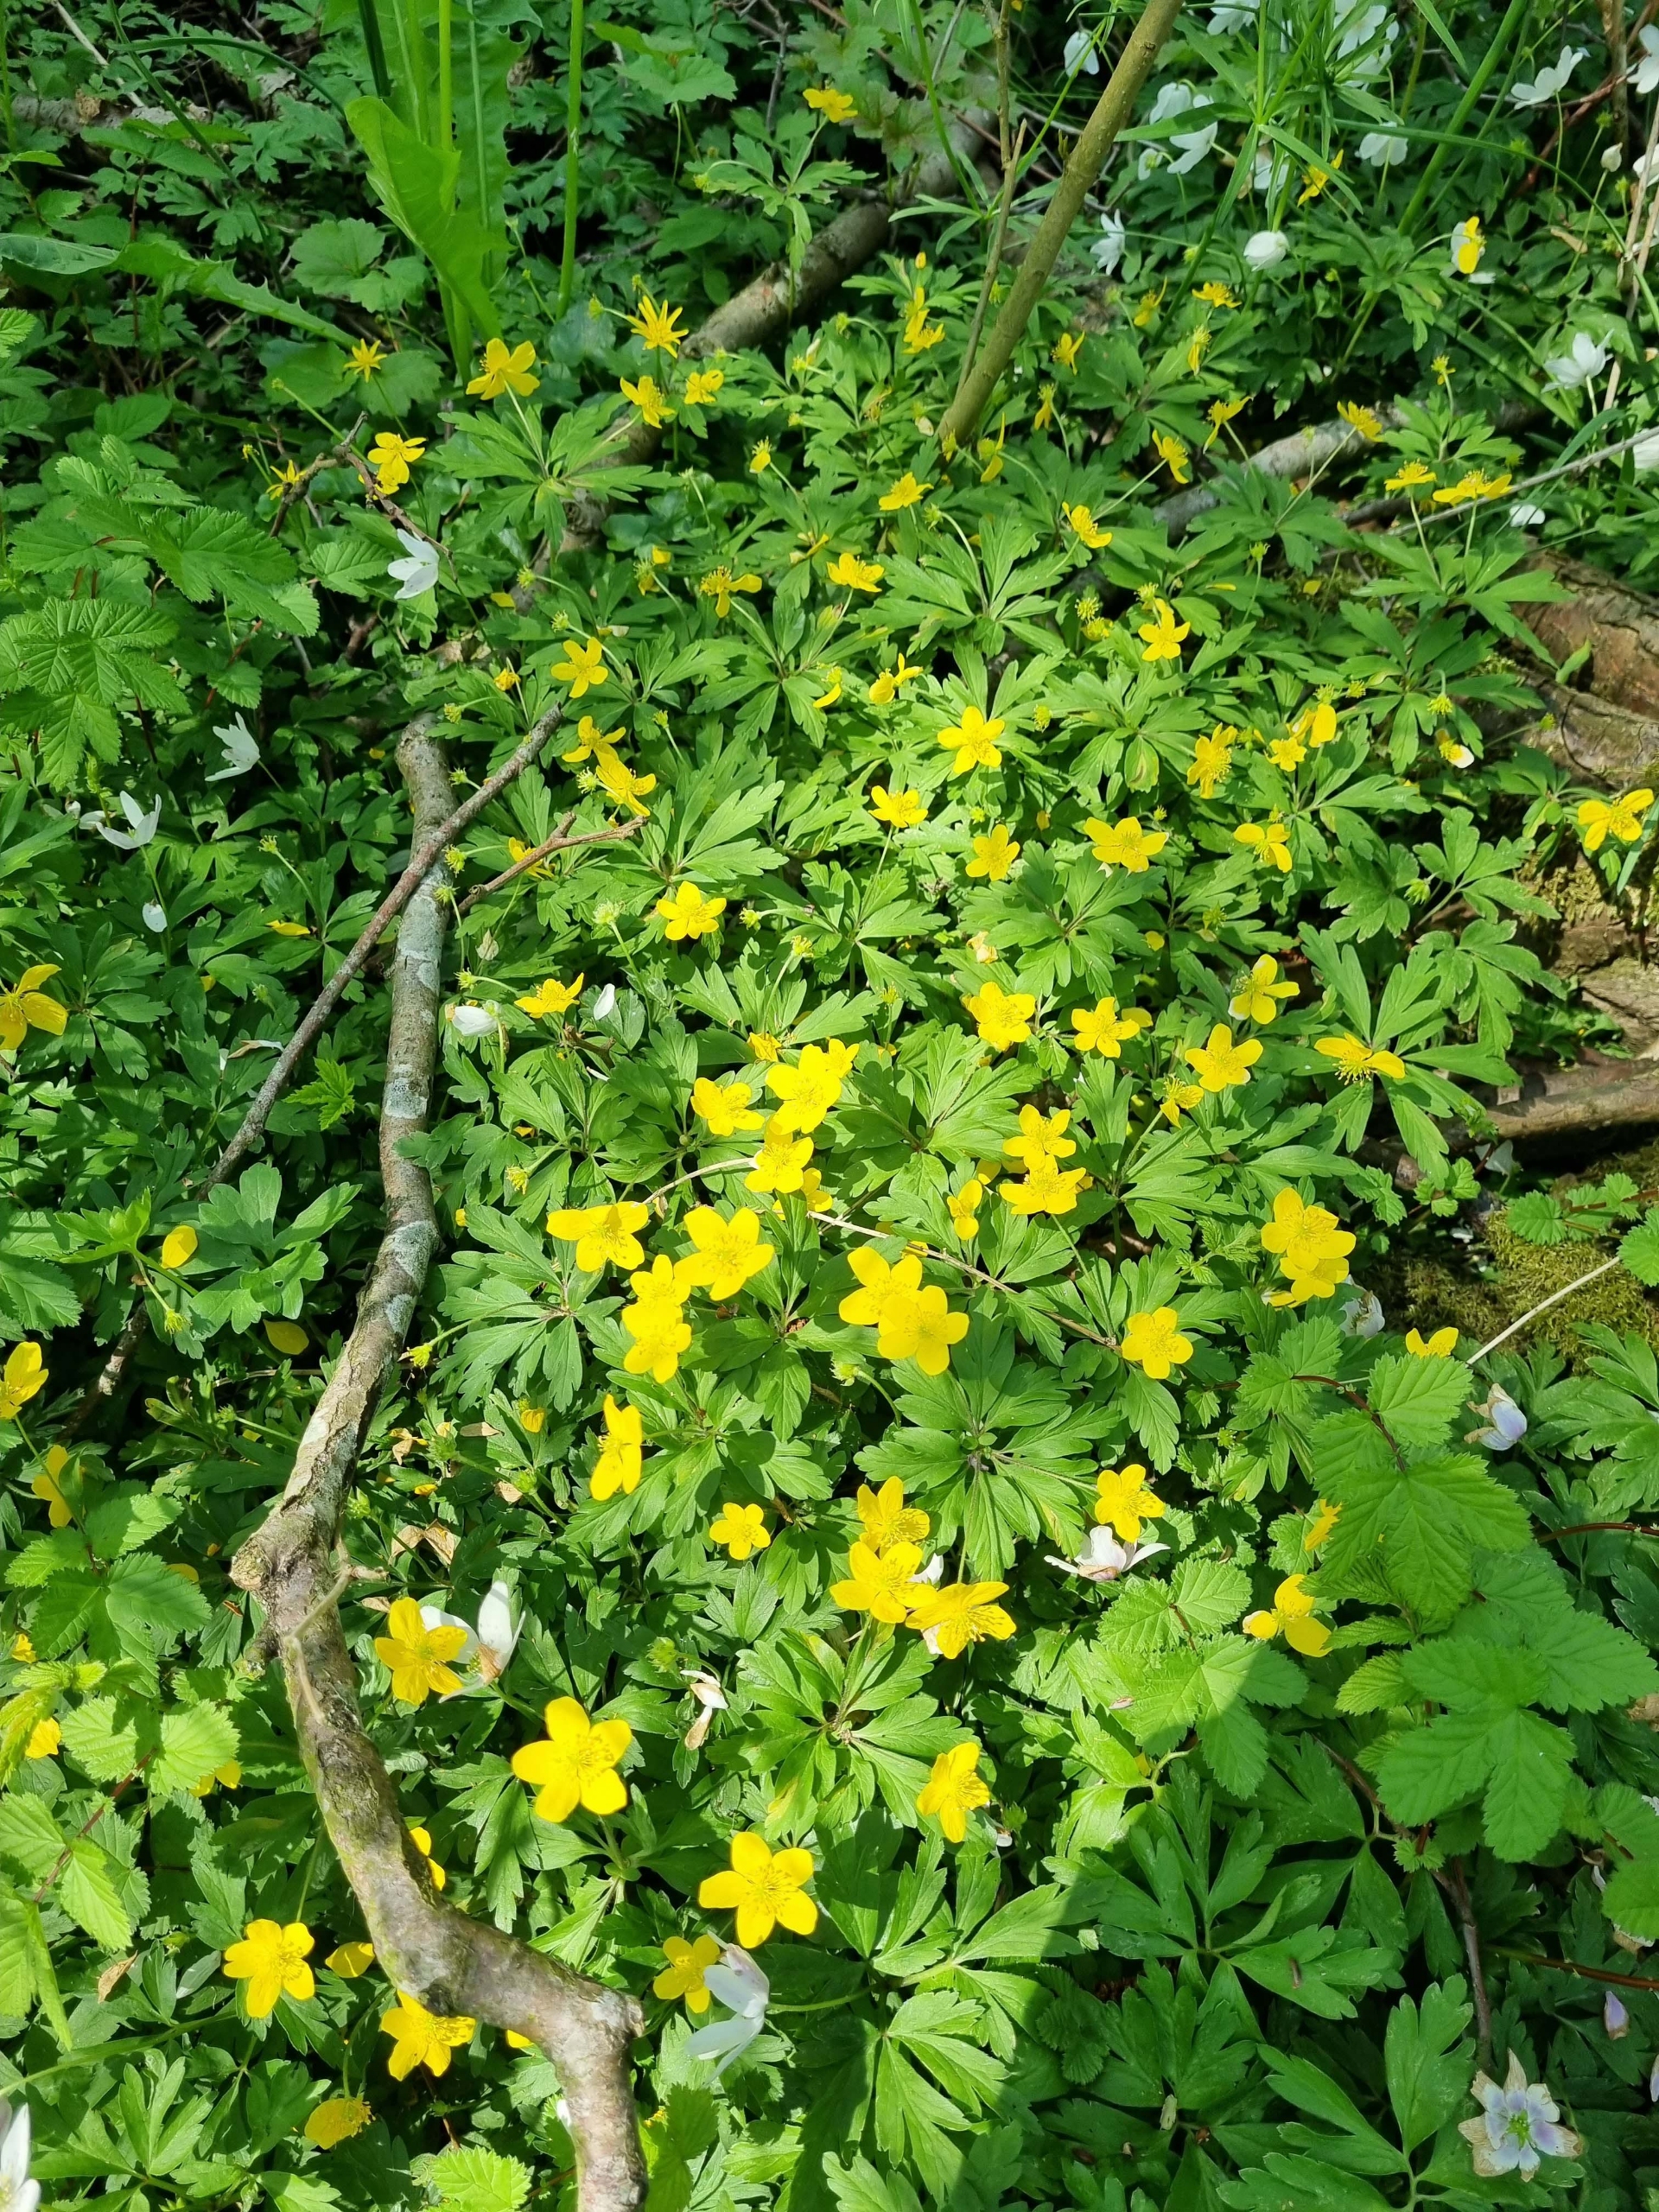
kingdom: Plantae
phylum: Tracheophyta
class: Magnoliopsida
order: Ranunculales
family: Ranunculaceae
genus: Anemone
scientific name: Anemone ranunculoides
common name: Gul anemone
